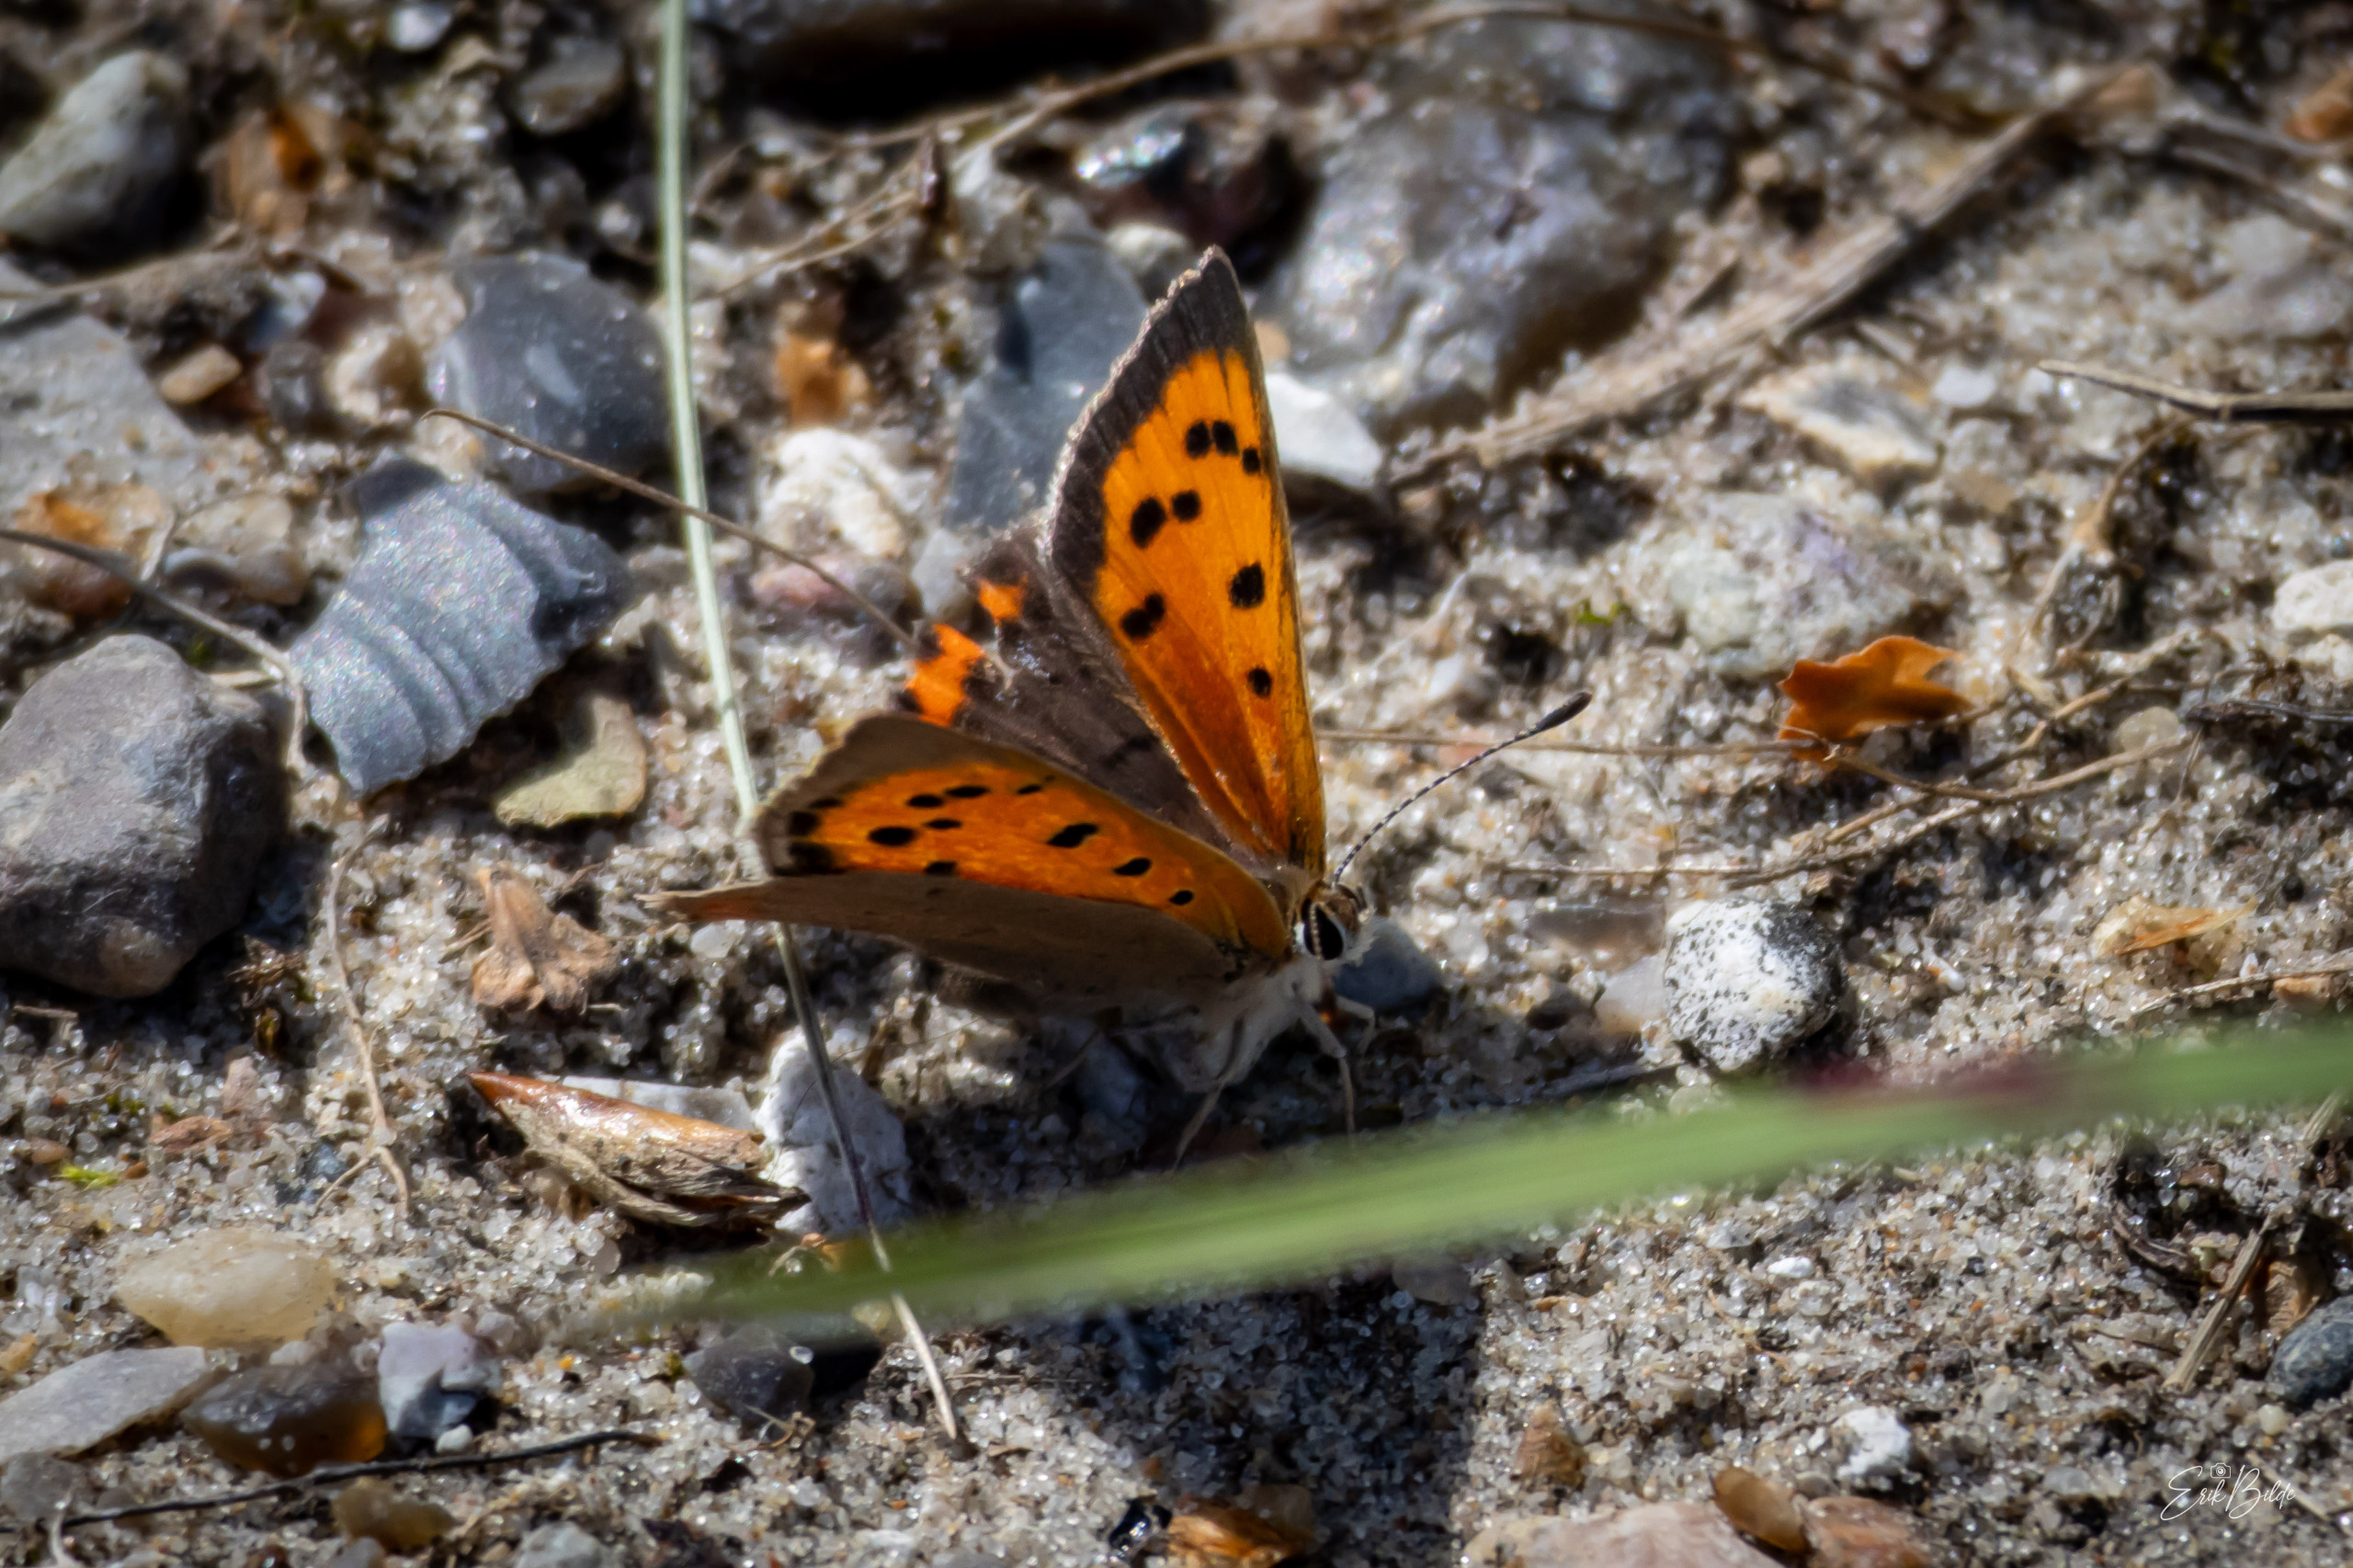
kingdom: Animalia
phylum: Arthropoda
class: Insecta
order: Lepidoptera
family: Lycaenidae
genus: Lycaena
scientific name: Lycaena phlaeas
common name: Lille ildfugl
